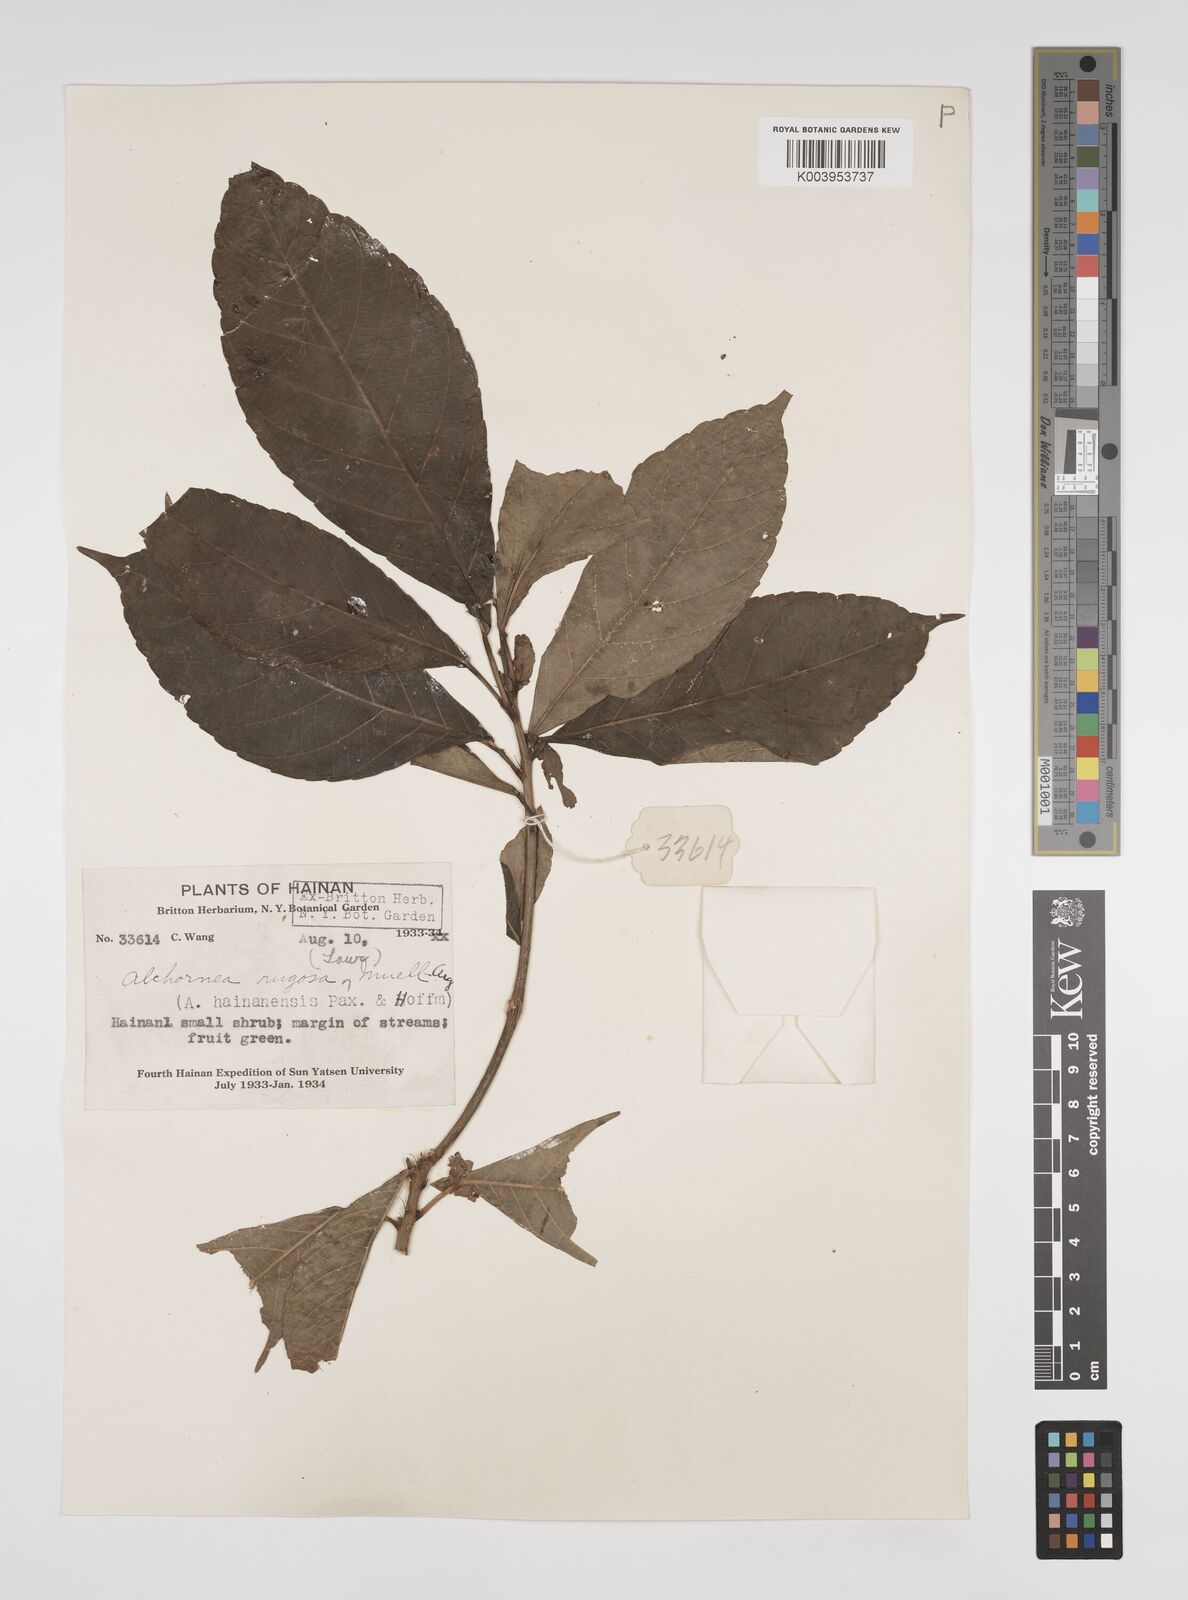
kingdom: Plantae
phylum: Tracheophyta
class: Magnoliopsida
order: Malpighiales
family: Euphorbiaceae
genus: Alchornea
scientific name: Alchornea rugosa
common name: Alchorntree
